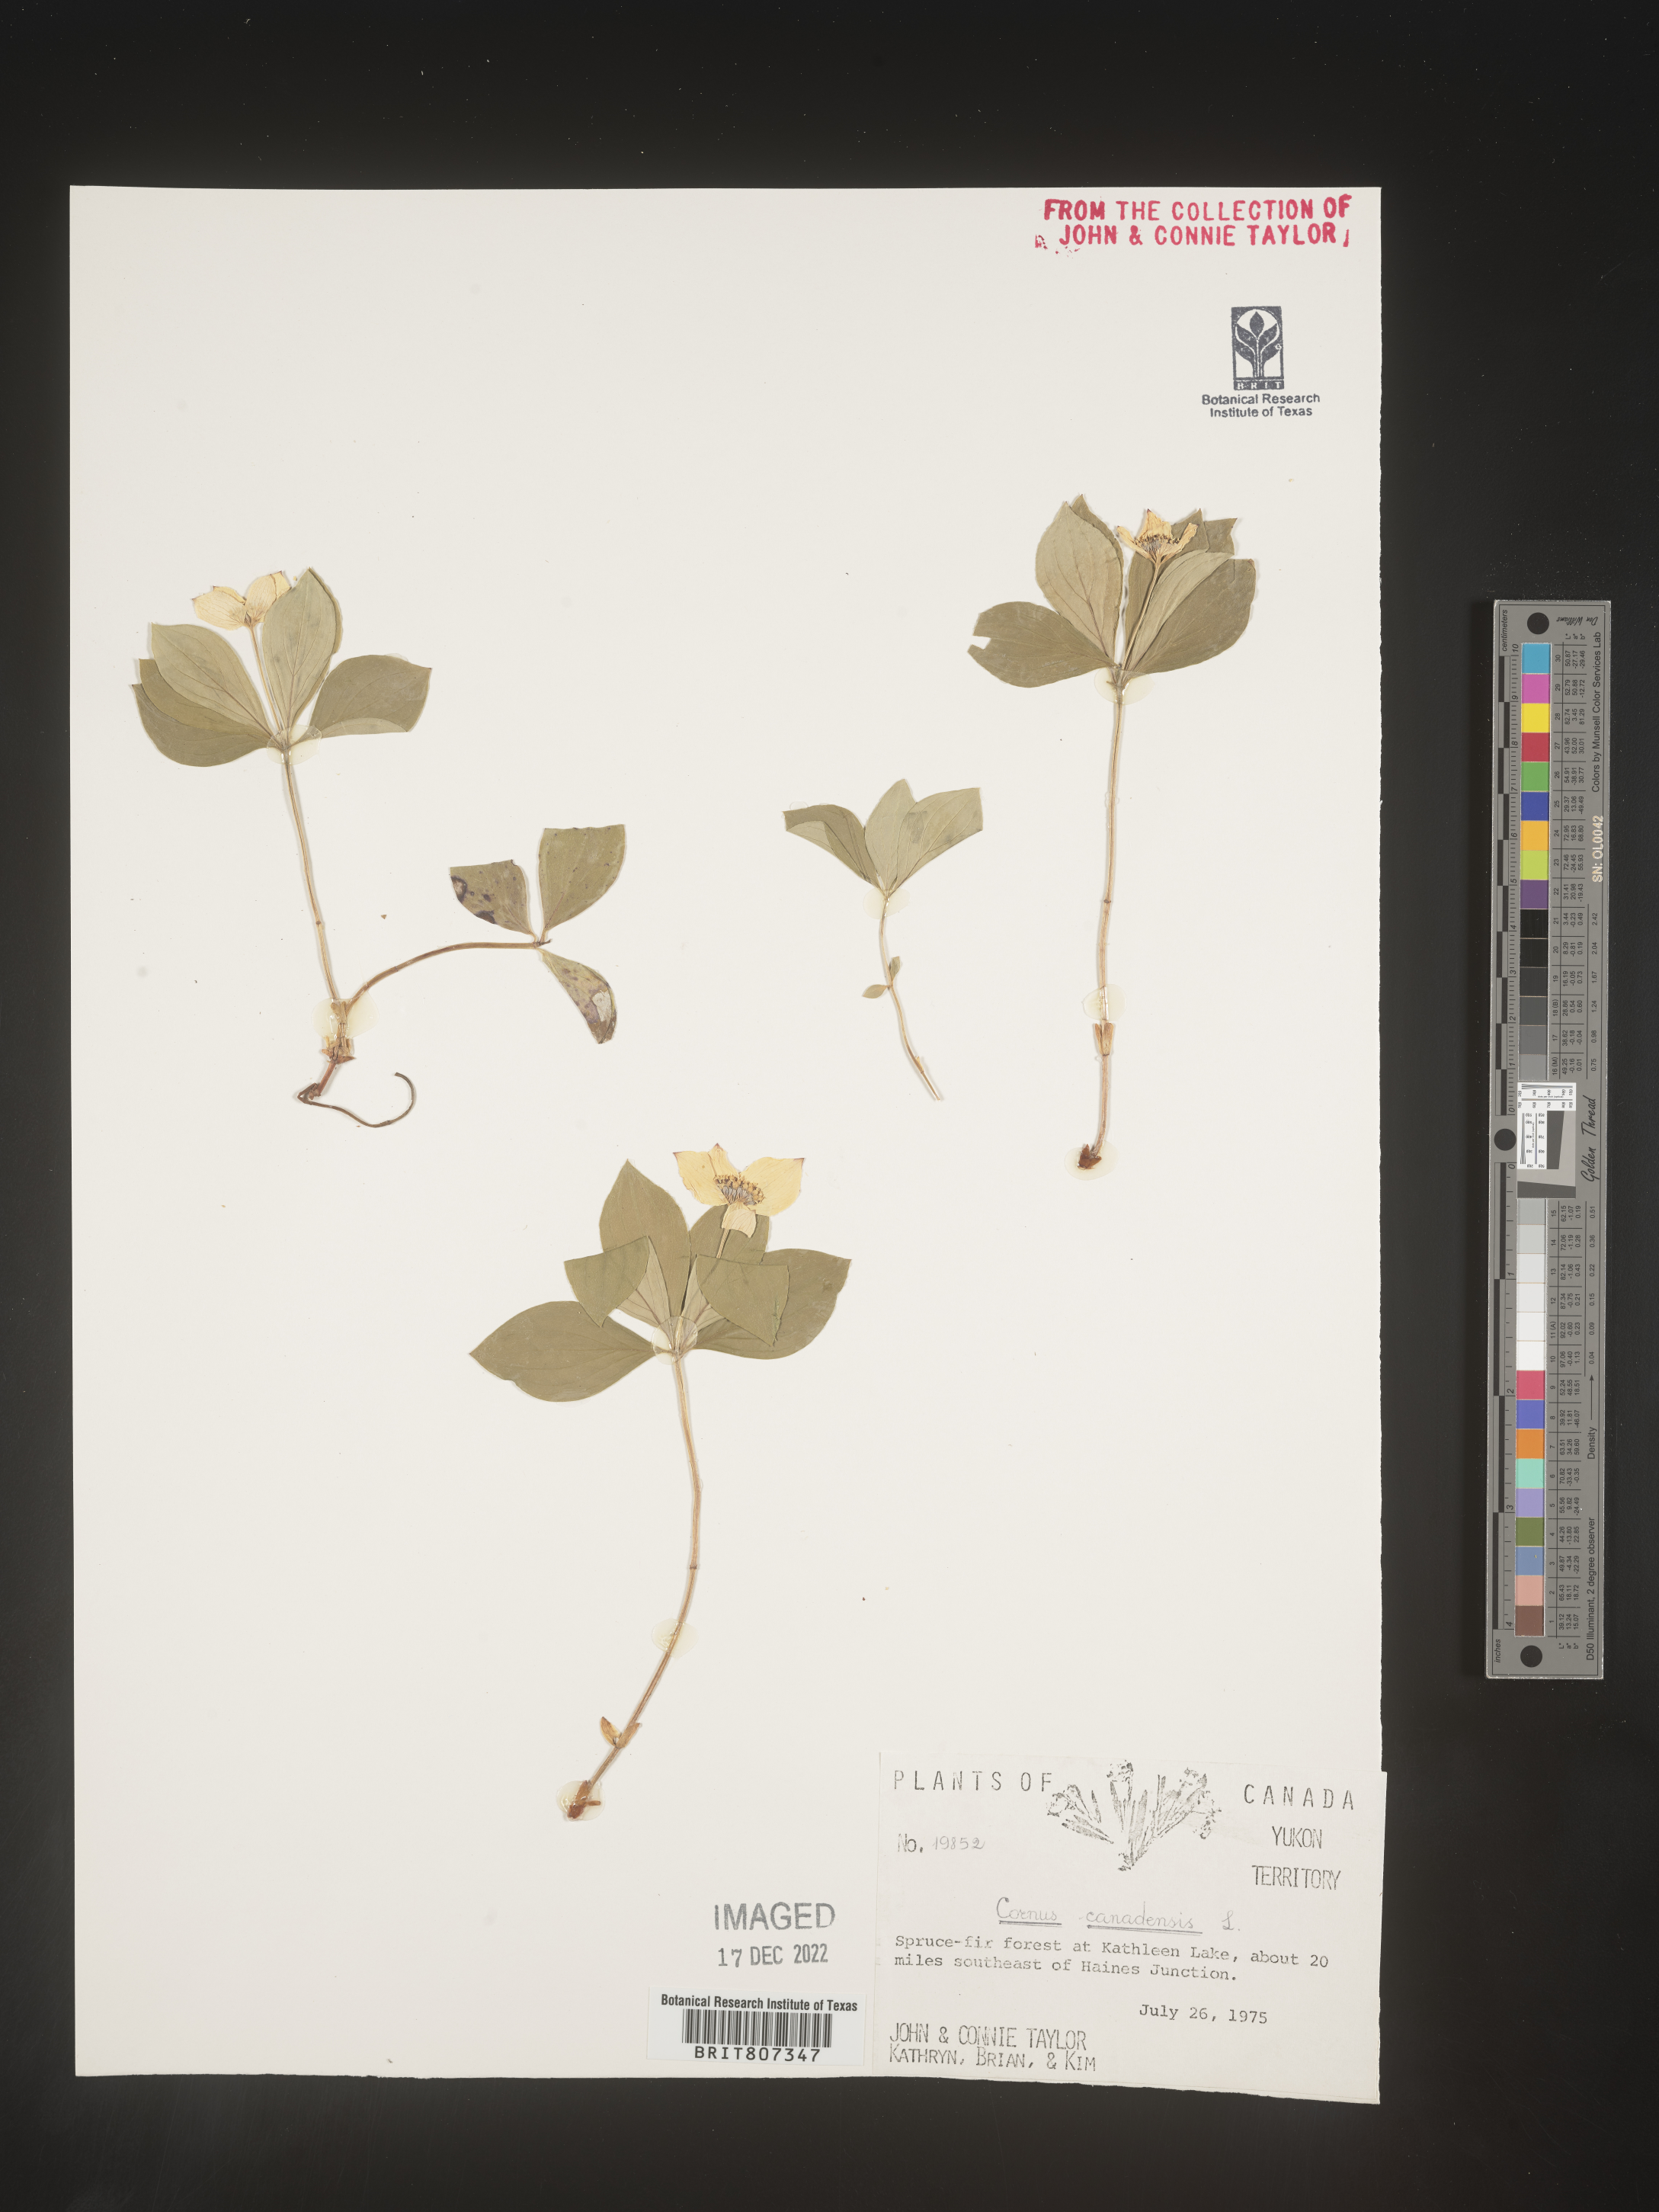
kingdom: Plantae
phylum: Tracheophyta
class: Magnoliopsida
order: Cornales
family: Cornaceae
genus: Cornus
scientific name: Cornus canadensis
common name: Creeping dogwood
